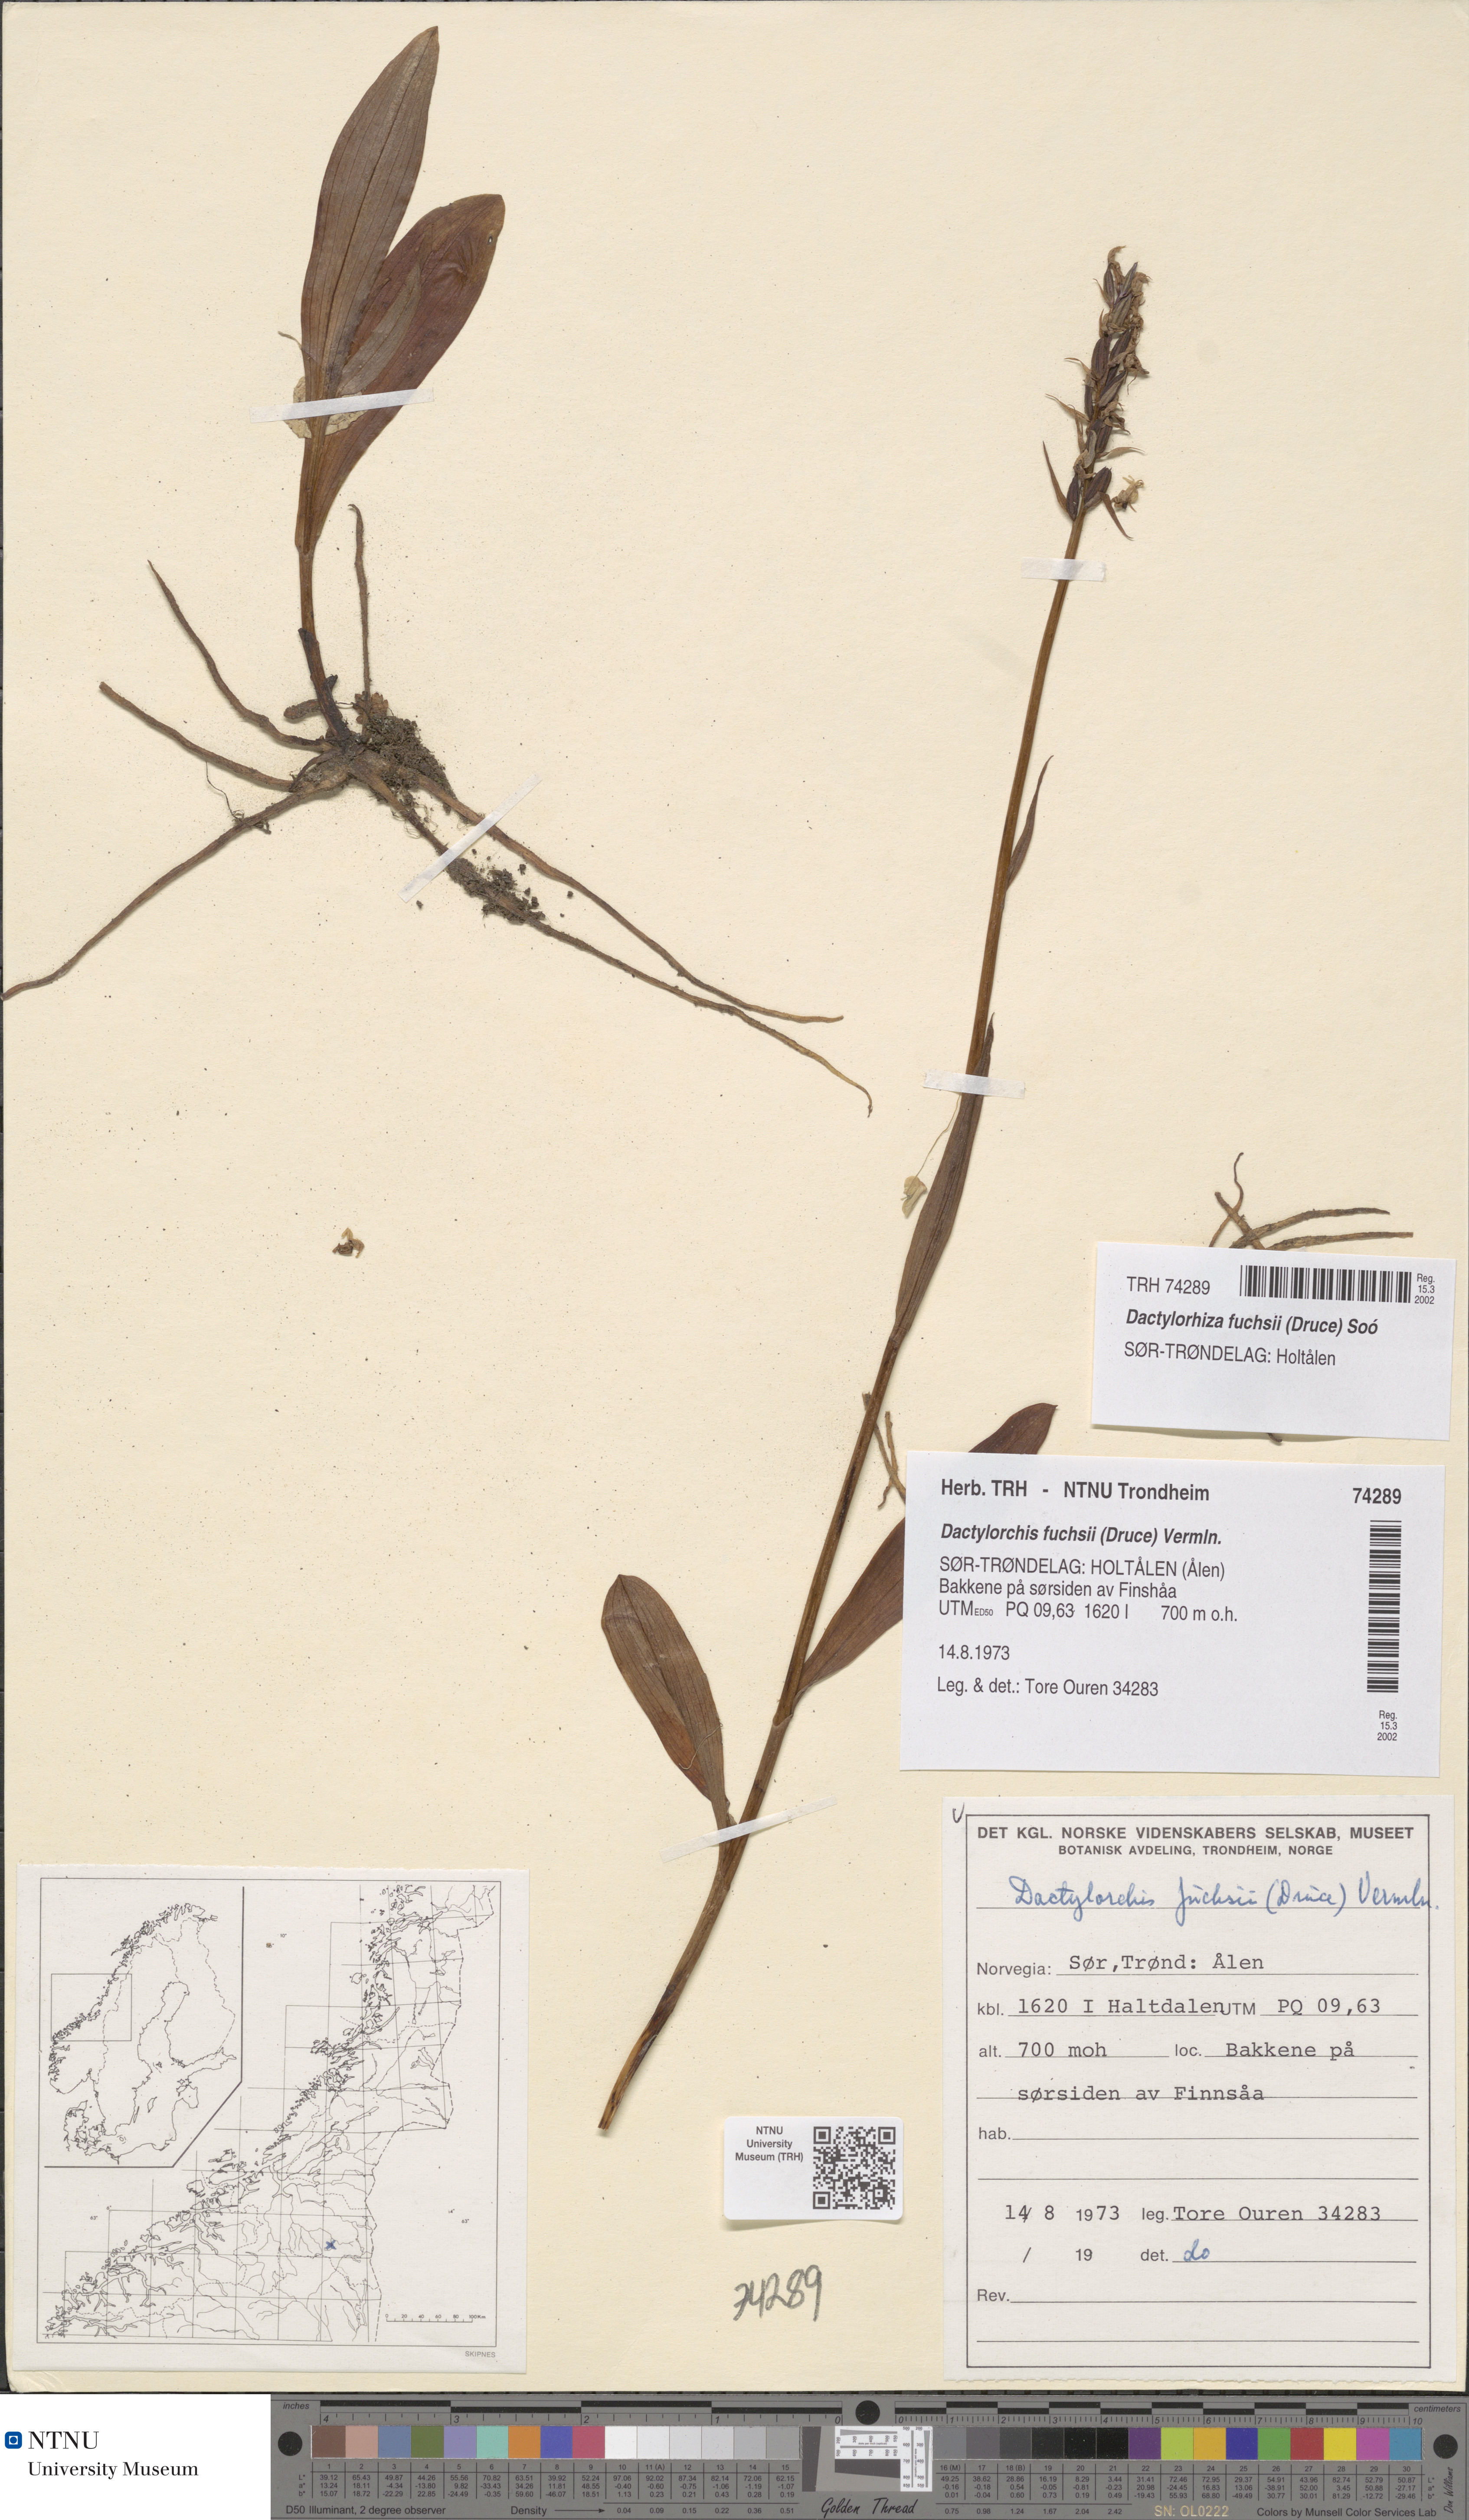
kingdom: Plantae
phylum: Tracheophyta
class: Liliopsida
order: Asparagales
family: Orchidaceae
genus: Dactylorhiza
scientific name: Dactylorhiza maculata
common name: Heath spotted-orchid
